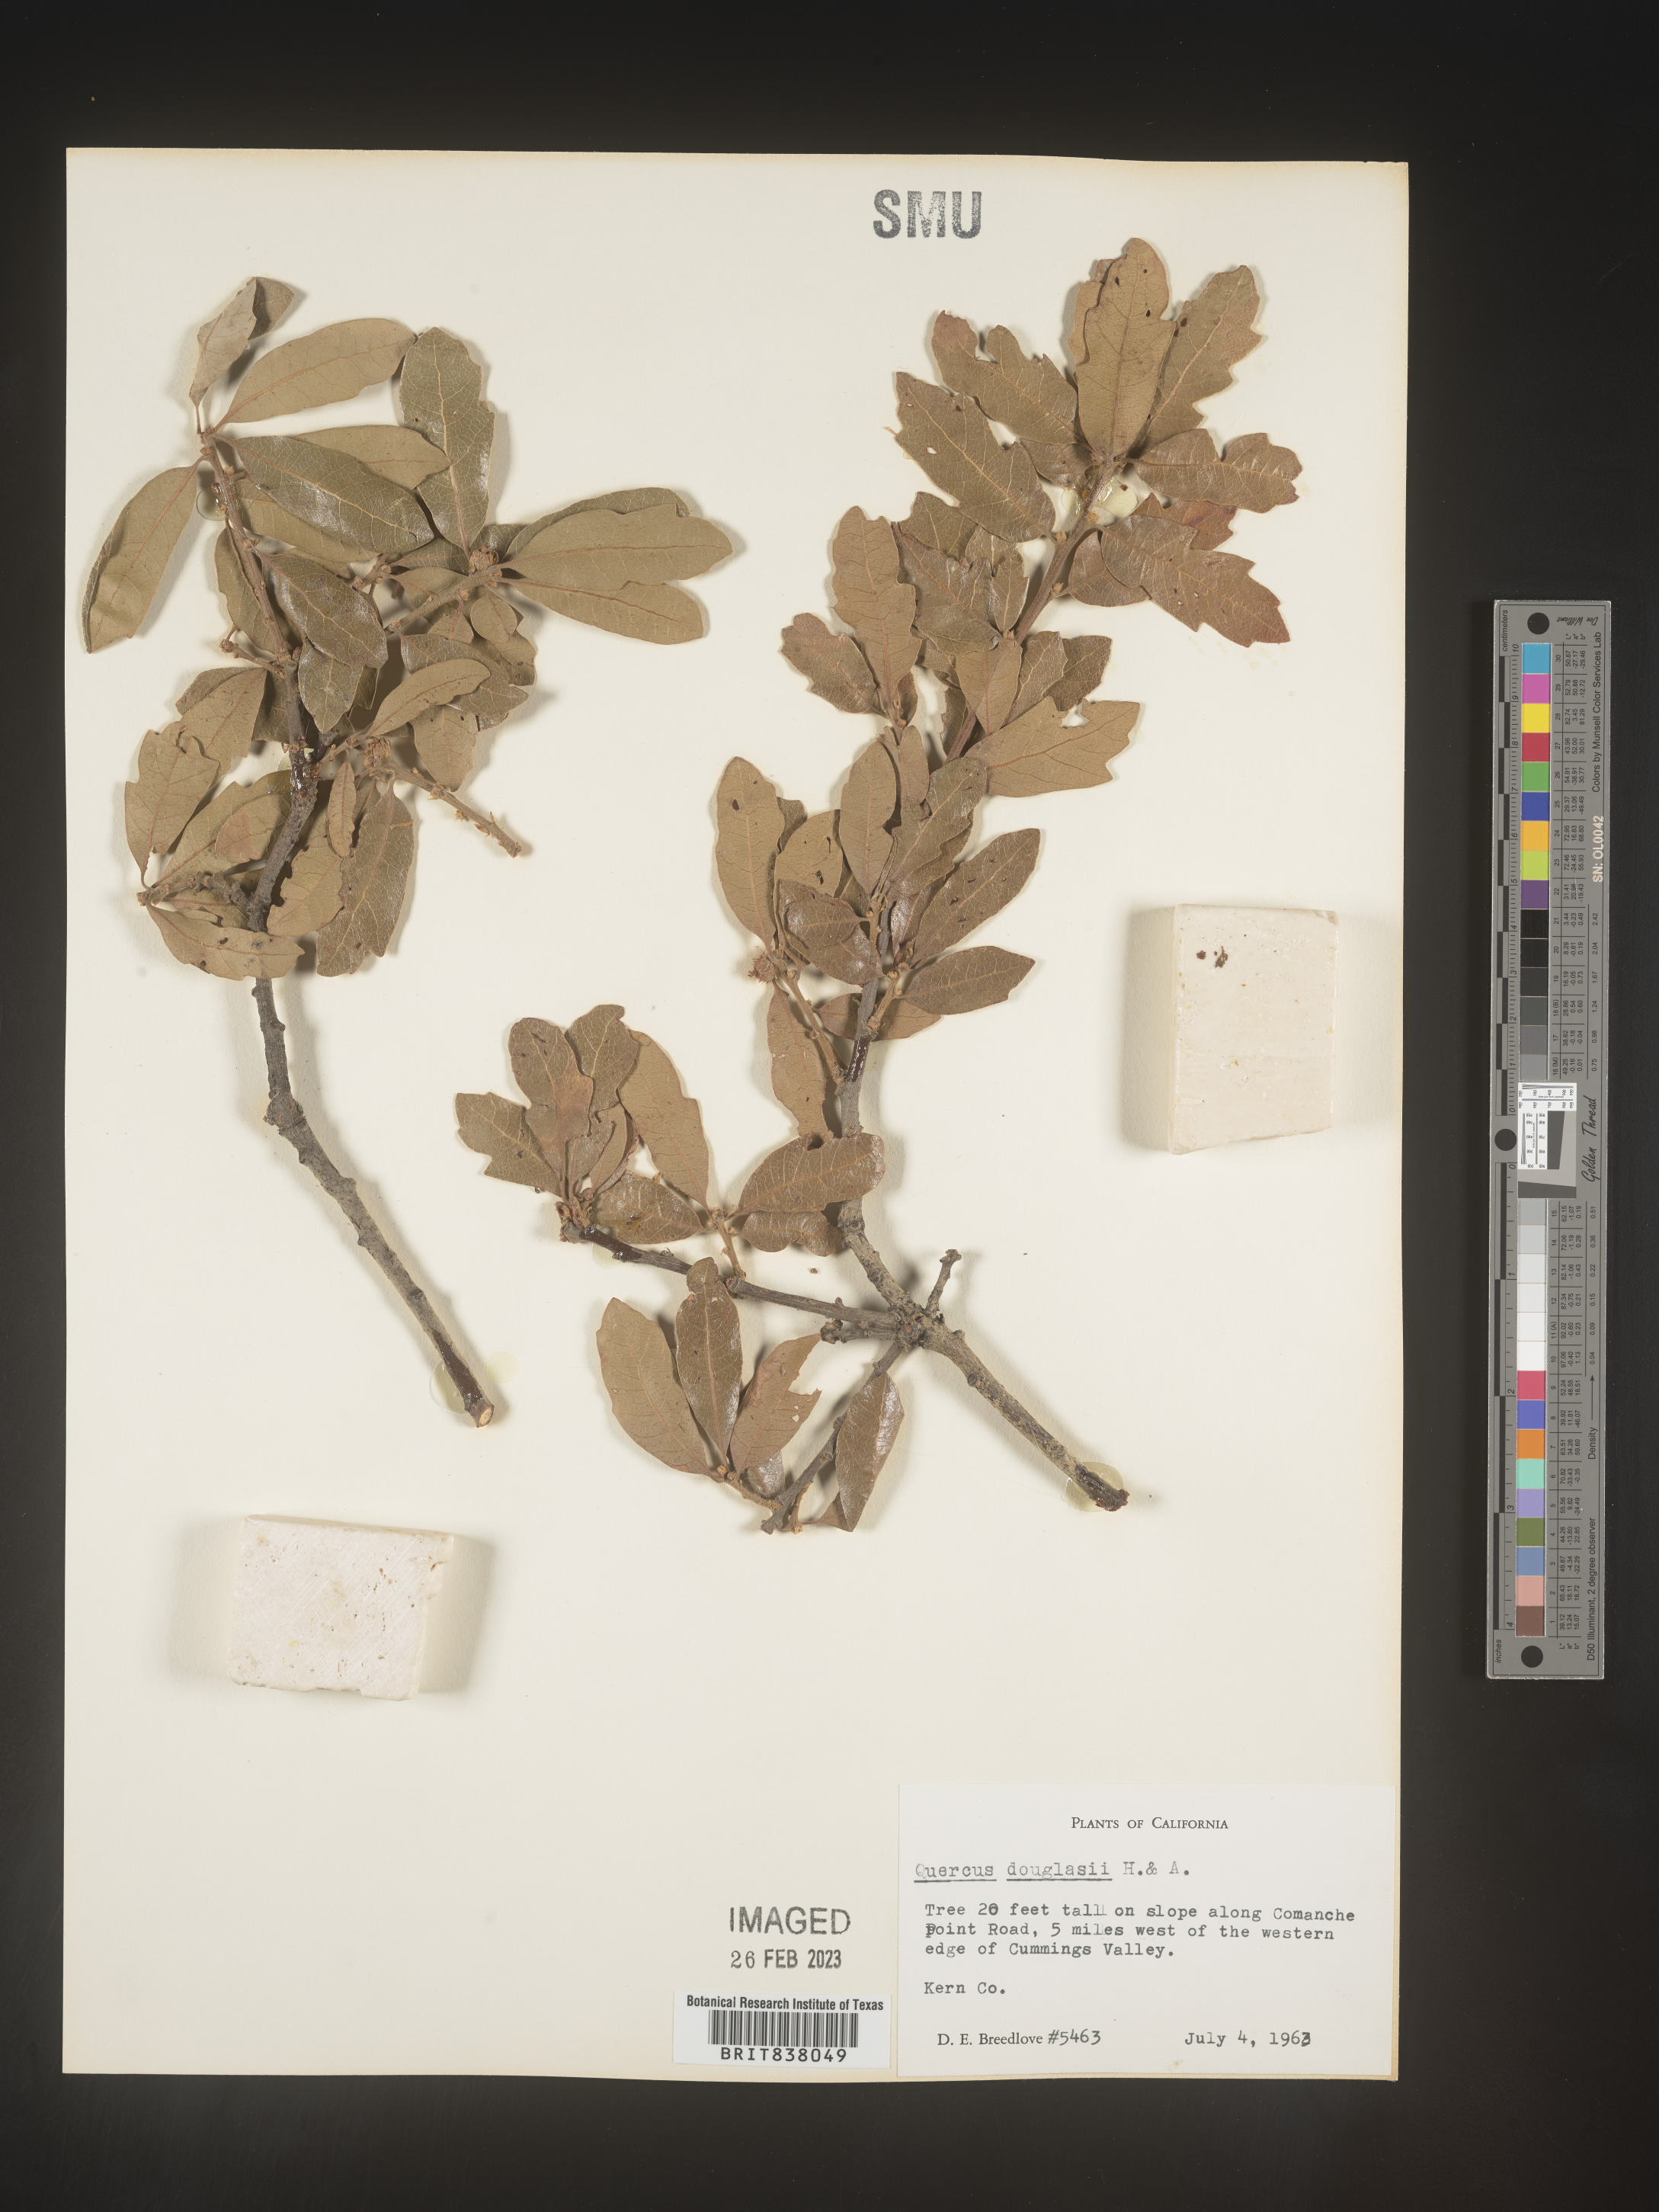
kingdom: Plantae
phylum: Tracheophyta
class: Magnoliopsida
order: Fagales
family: Fagaceae
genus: Quercus
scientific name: Quercus
